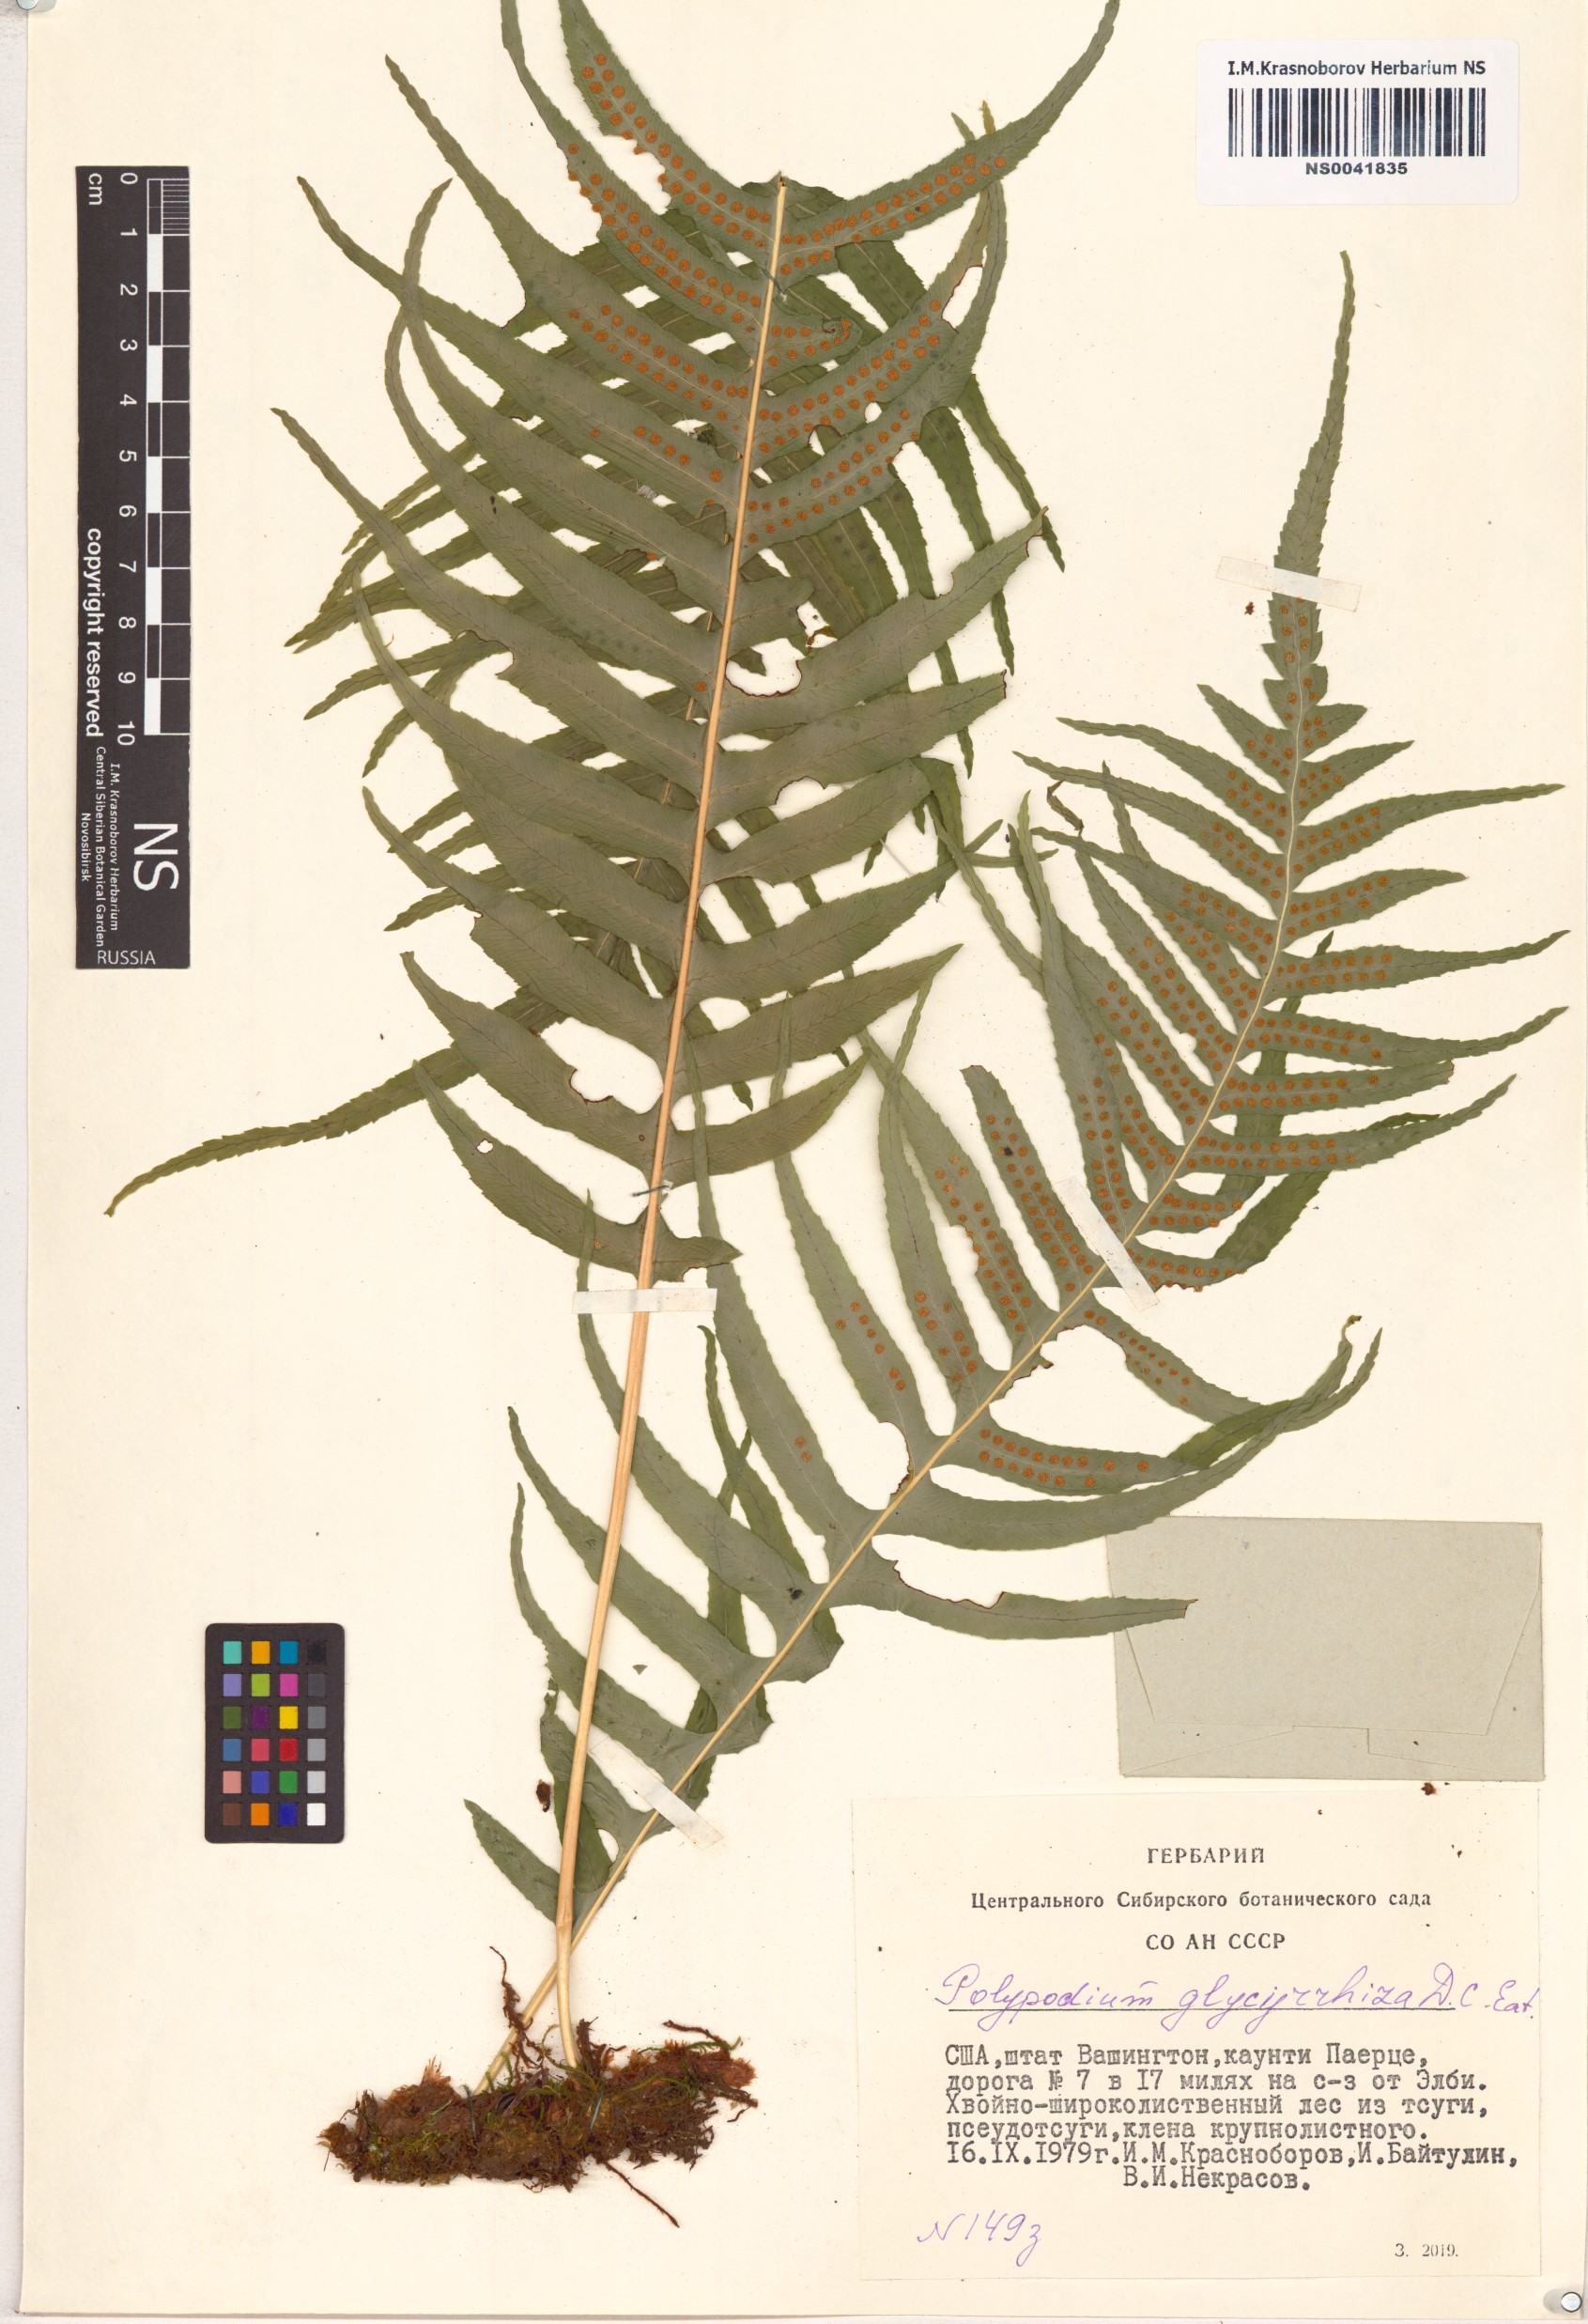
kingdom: Plantae
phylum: Tracheophyta
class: Polypodiopsida
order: Polypodiales
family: Polypodiaceae
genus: Polypodium
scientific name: Polypodium glycyrrhiza
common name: Licorice fern
